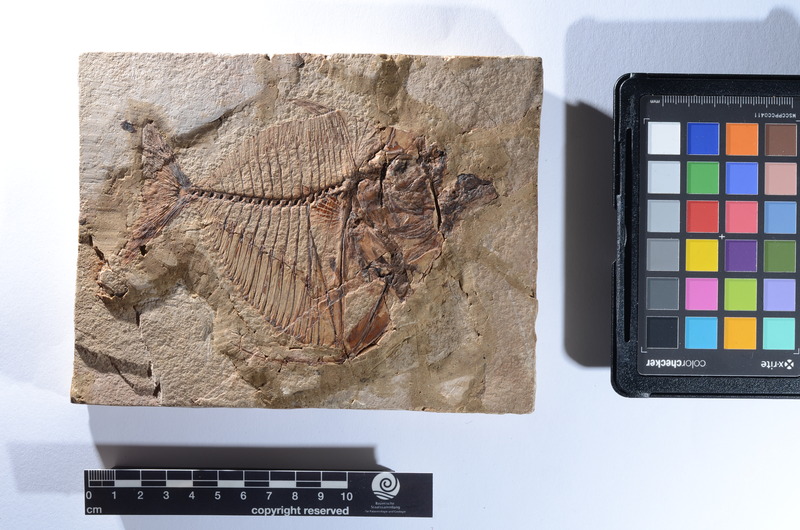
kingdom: Animalia
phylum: Chordata
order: Perciformes
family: Menidae
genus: Mene
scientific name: Mene rhombea
